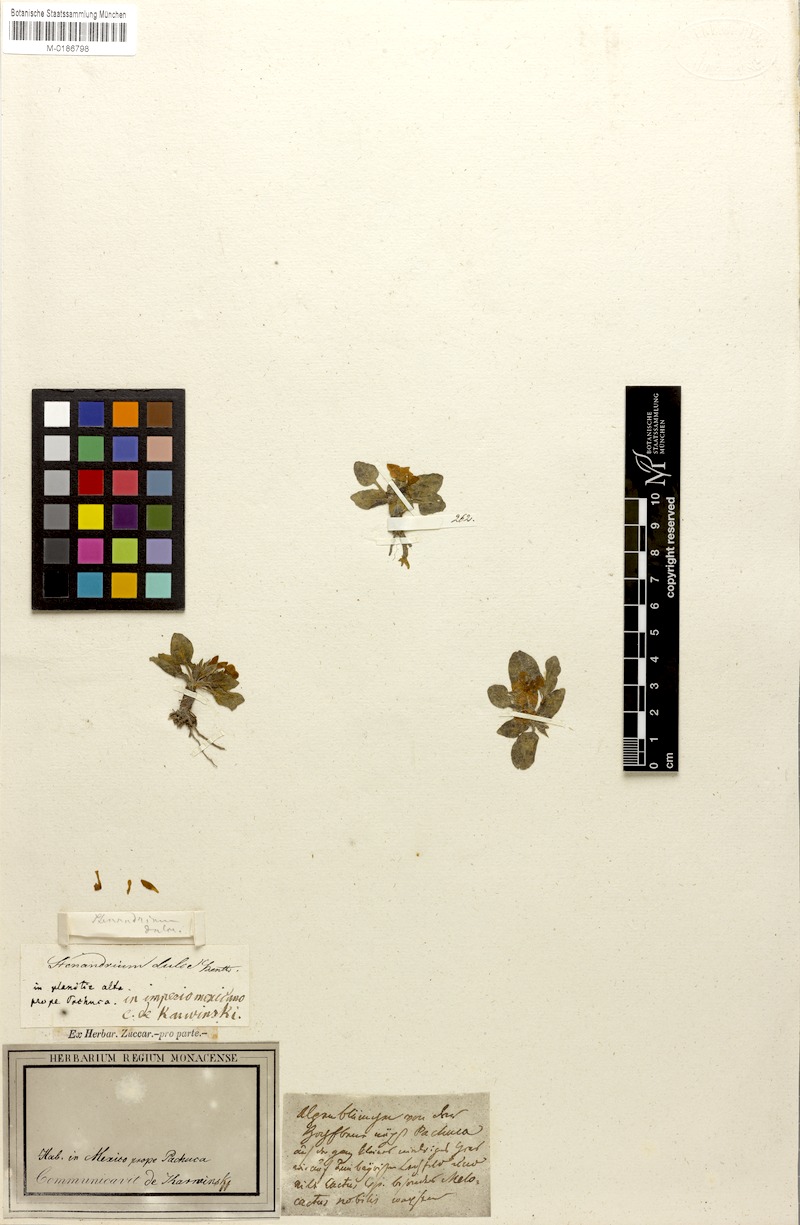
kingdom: Plantae
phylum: Tracheophyta
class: Magnoliopsida
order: Lamiales
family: Acanthaceae
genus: Stenandrium
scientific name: Stenandrium dulce
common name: Pinklet
